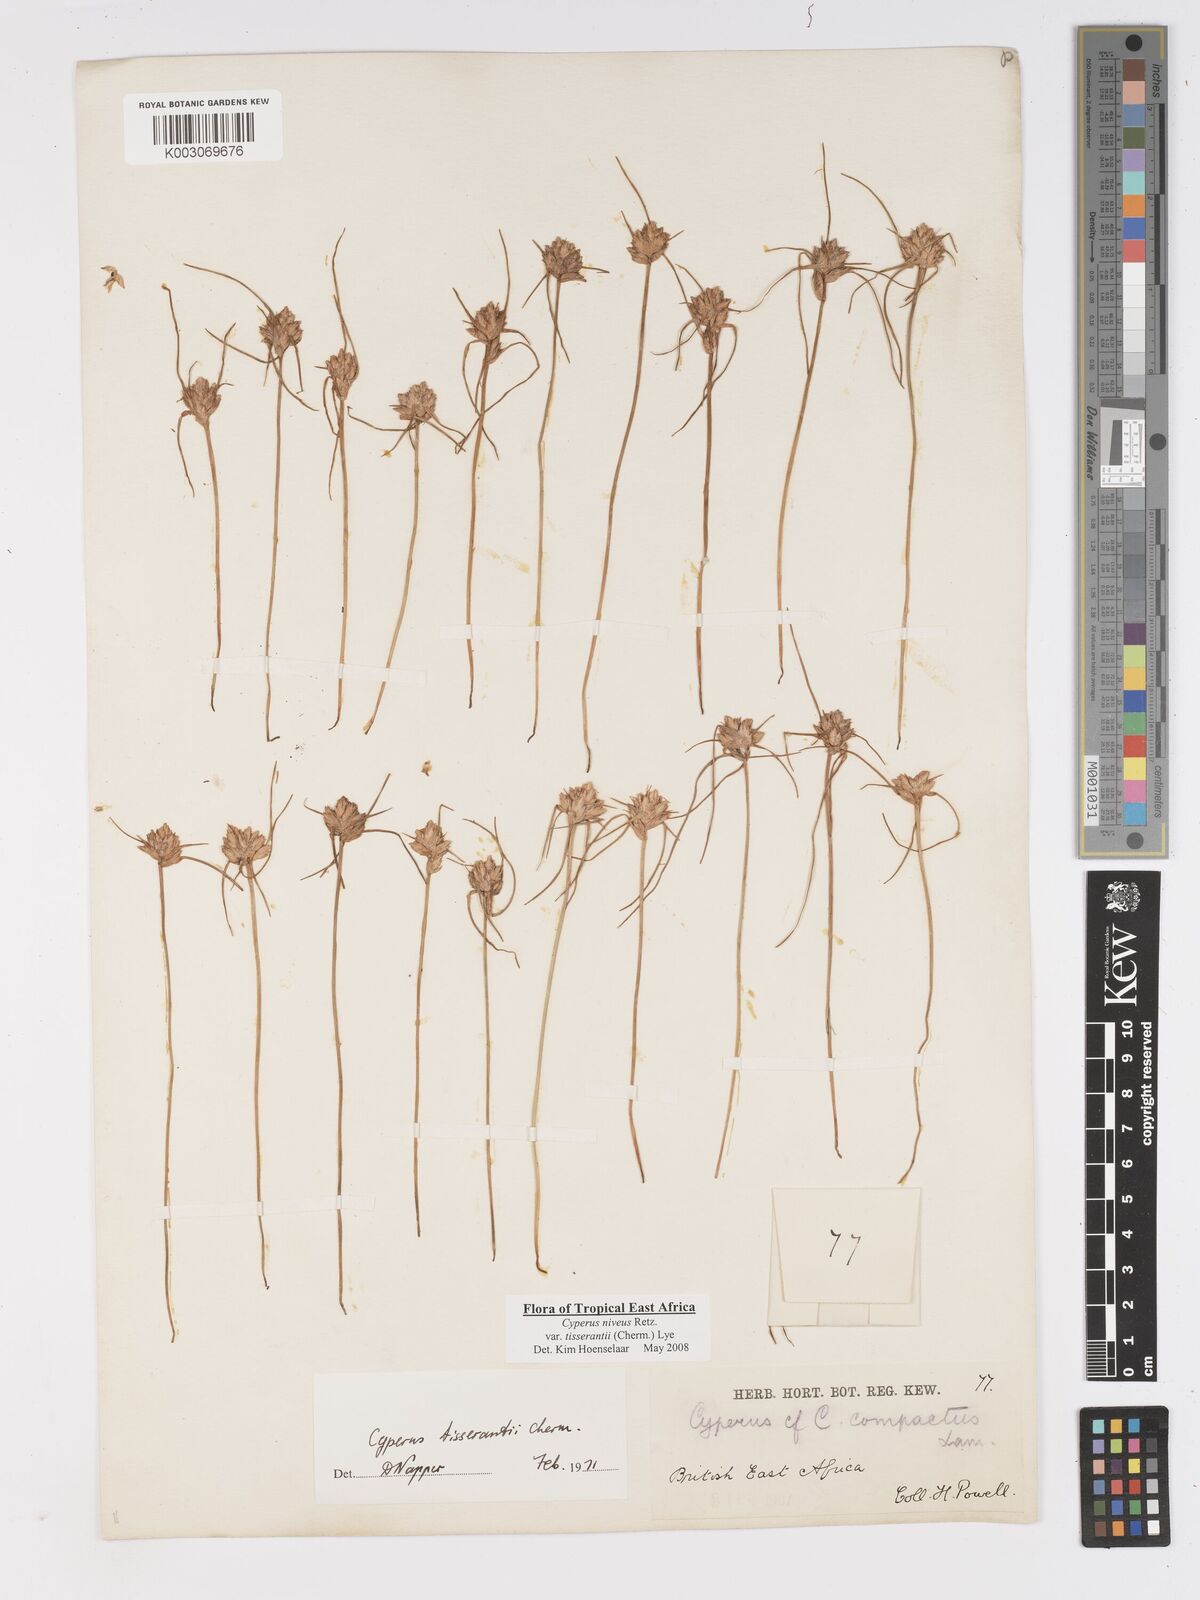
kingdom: Plantae
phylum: Tracheophyta
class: Liliopsida
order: Poales
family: Cyperaceae
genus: Cyperus
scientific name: Cyperus niveus
